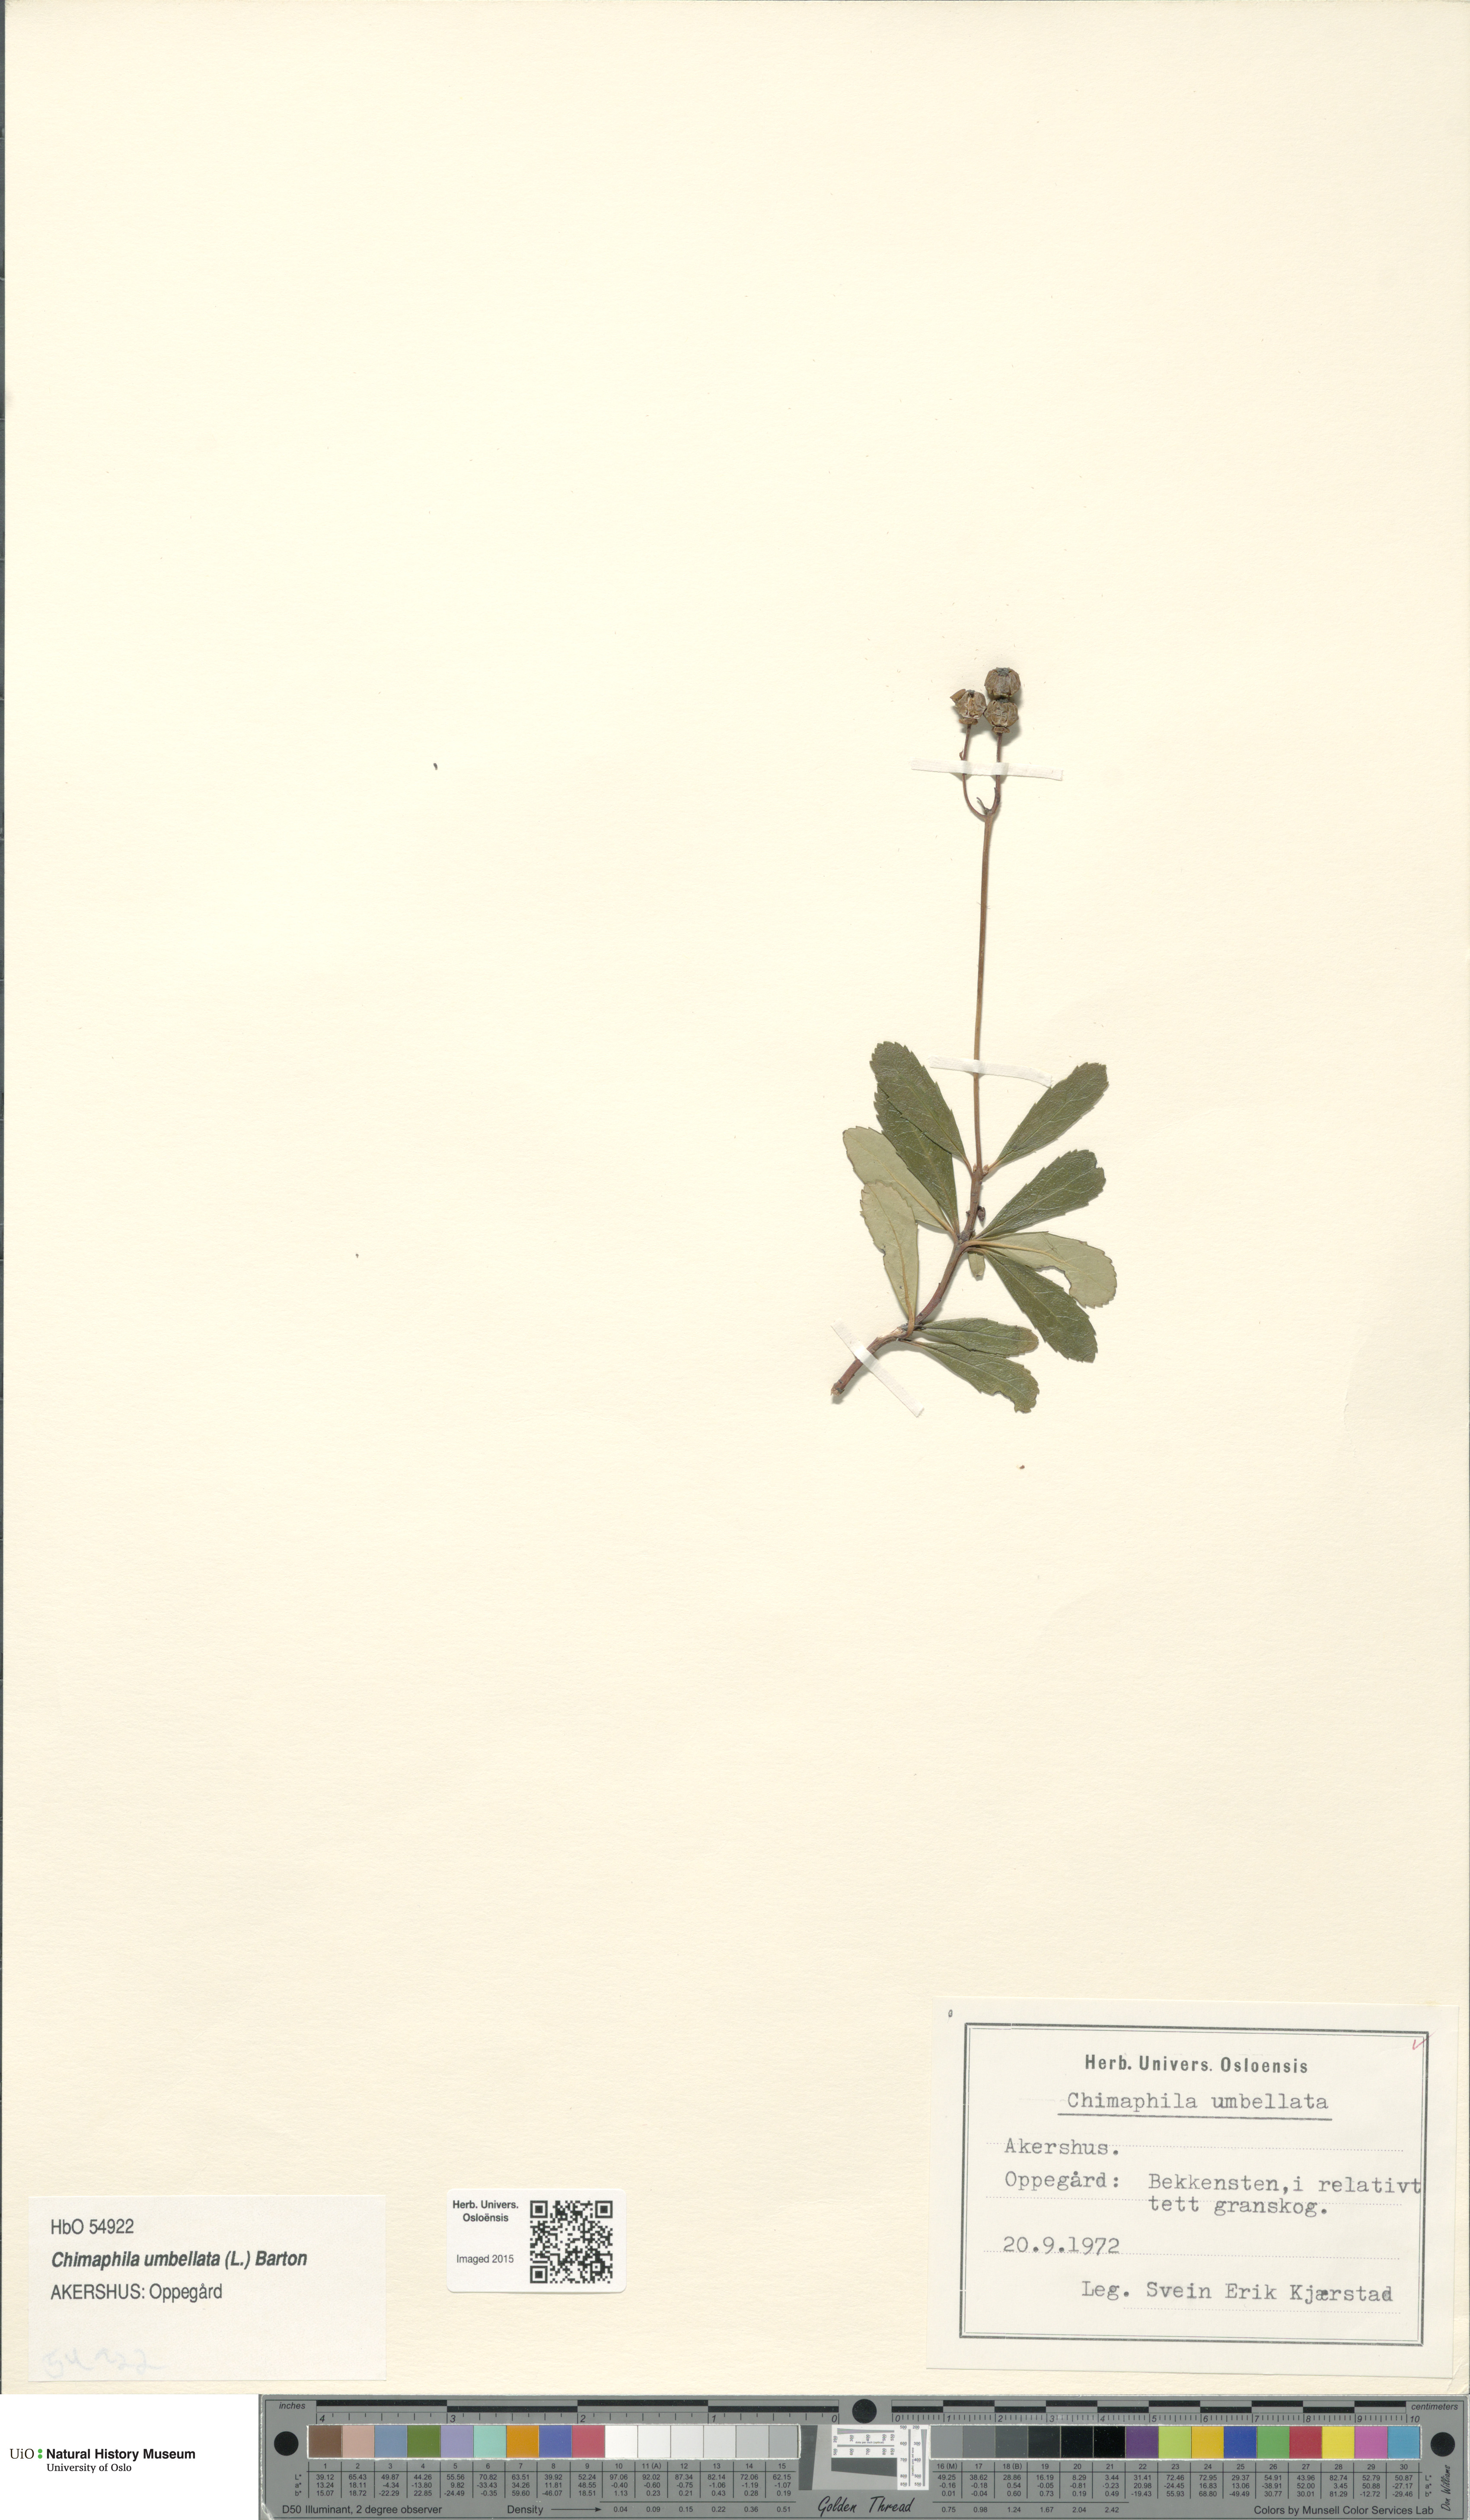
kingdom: Plantae
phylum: Tracheophyta
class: Magnoliopsida
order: Ericales
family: Ericaceae
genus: Chimaphila
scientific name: Chimaphila umbellata
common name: Pipsissewa
